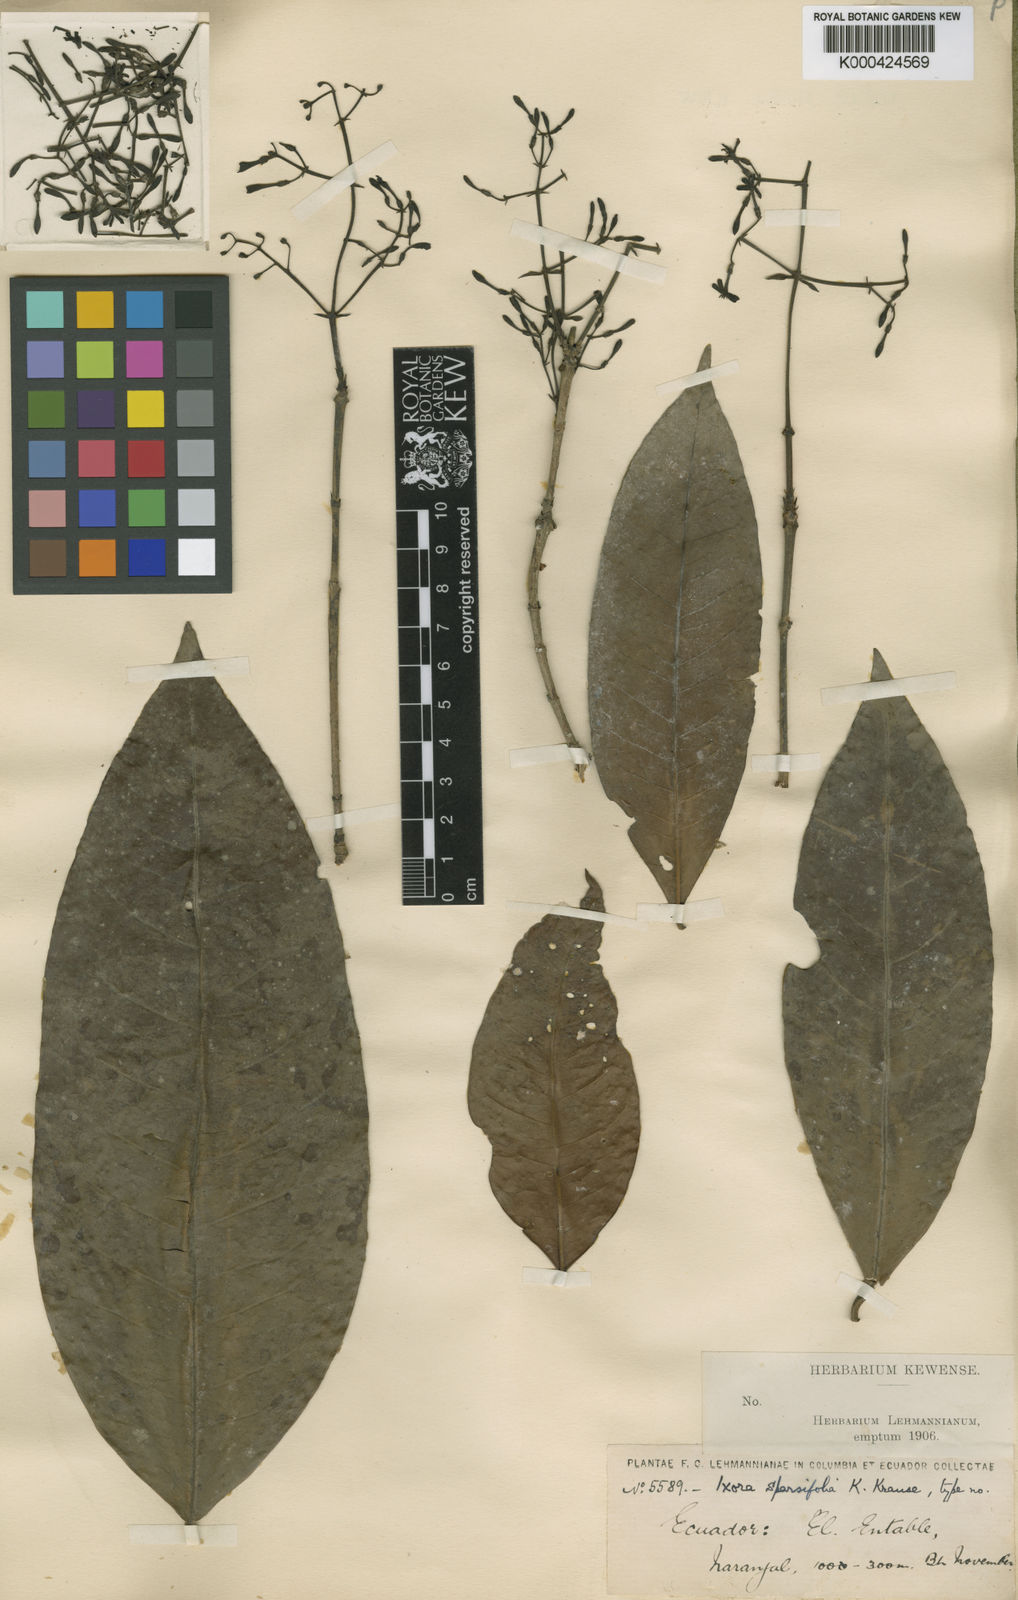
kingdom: Plantae
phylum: Tracheophyta
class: Magnoliopsida
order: Gentianales
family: Rubiaceae
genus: Ixora
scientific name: Ixora sparsifolia
